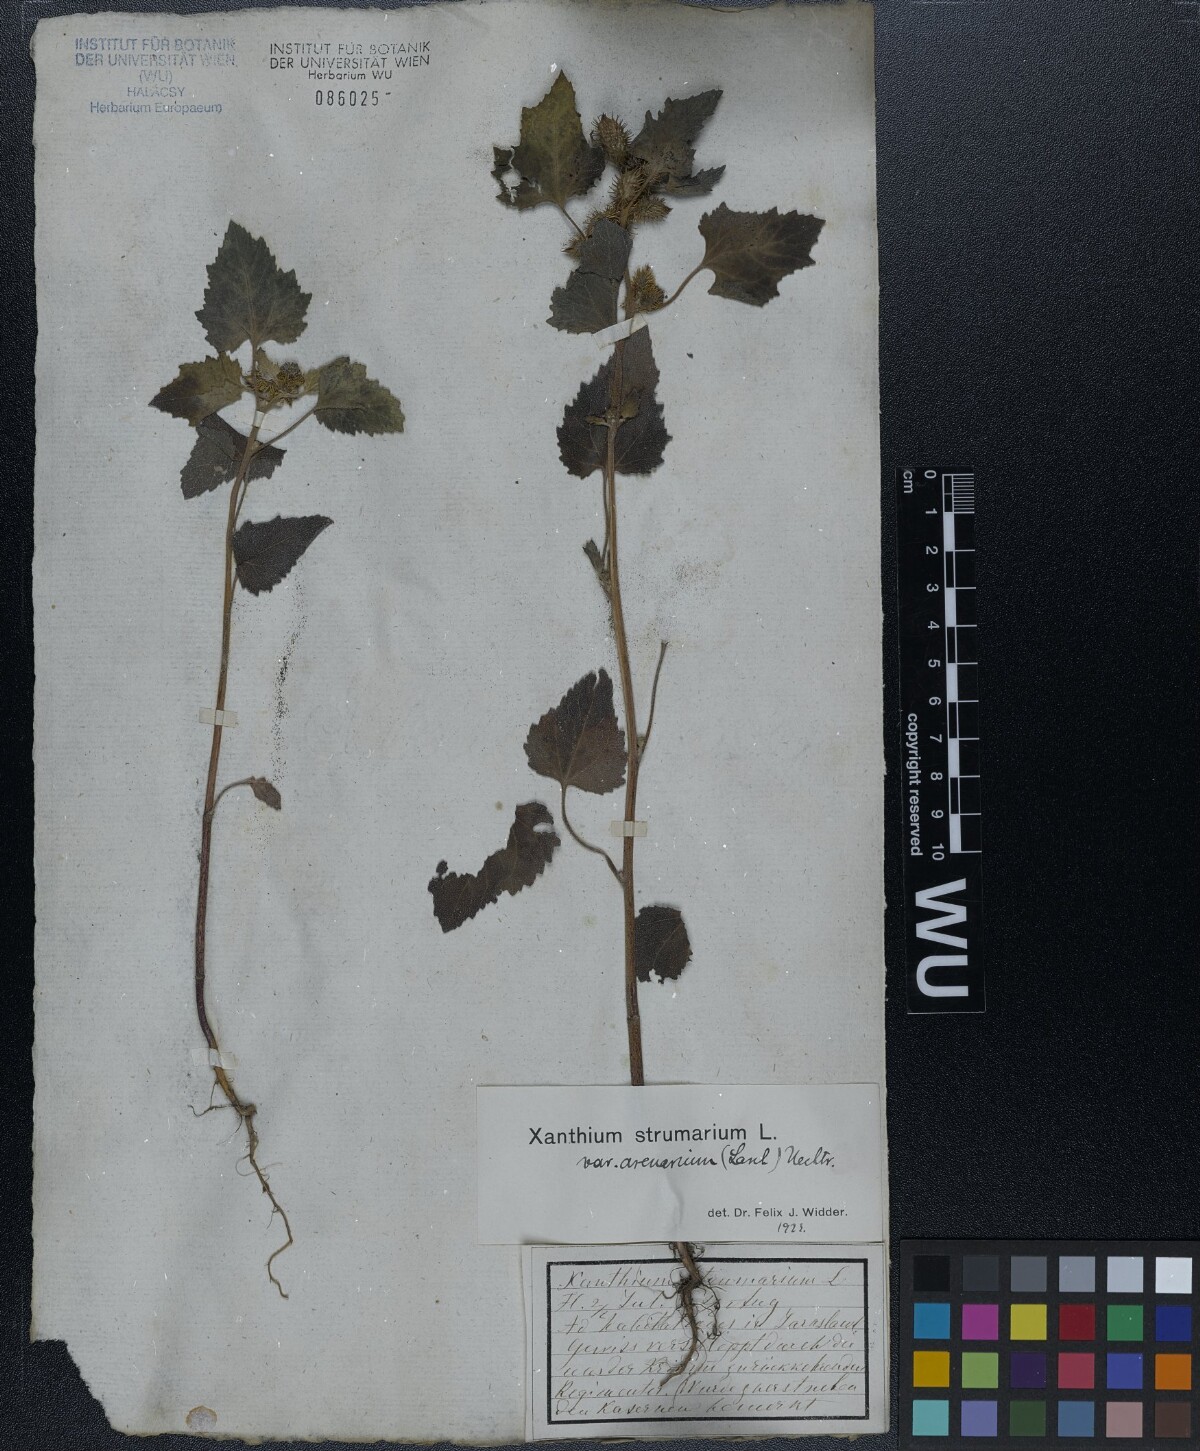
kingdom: Plantae
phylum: Tracheophyta
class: Magnoliopsida
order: Asterales
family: Asteraceae
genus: Xanthium
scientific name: Xanthium strumarium
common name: Rough cocklebur
